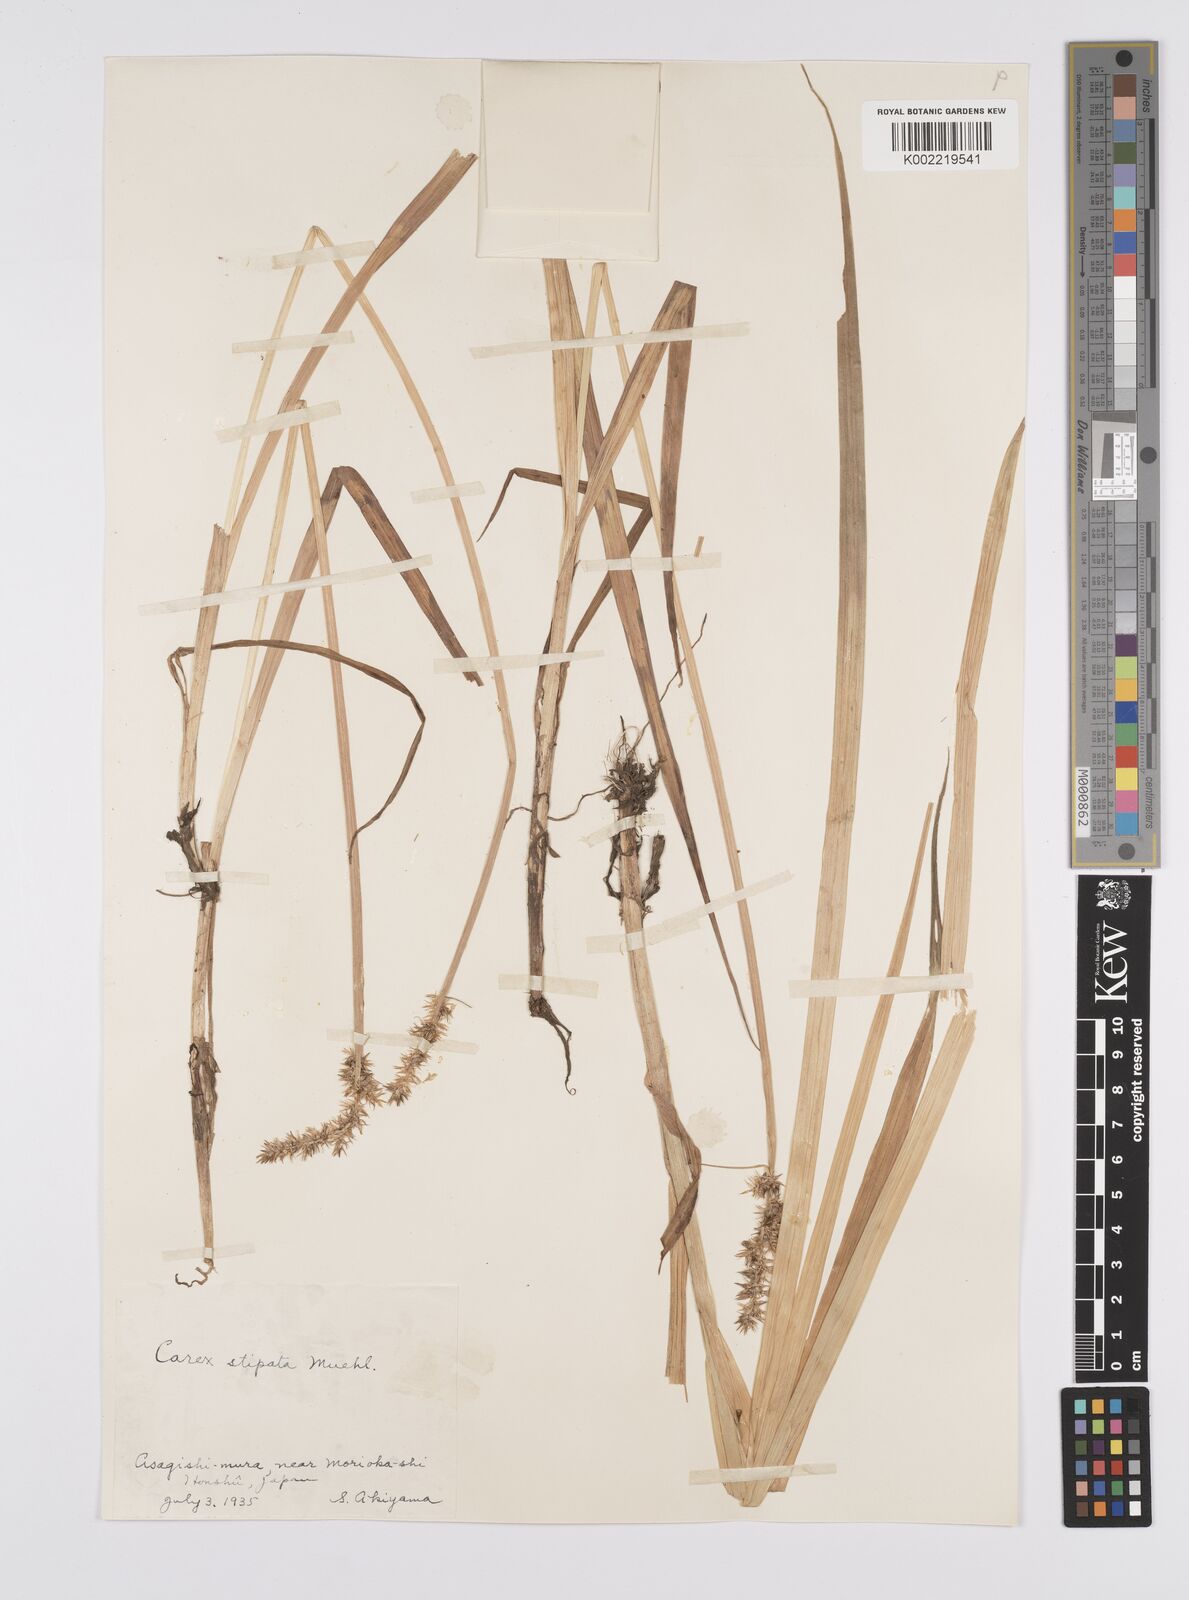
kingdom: Plantae
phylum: Tracheophyta
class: Liliopsida
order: Poales
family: Cyperaceae
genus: Carex
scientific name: Carex stipata
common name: Awl-fruited sedge
